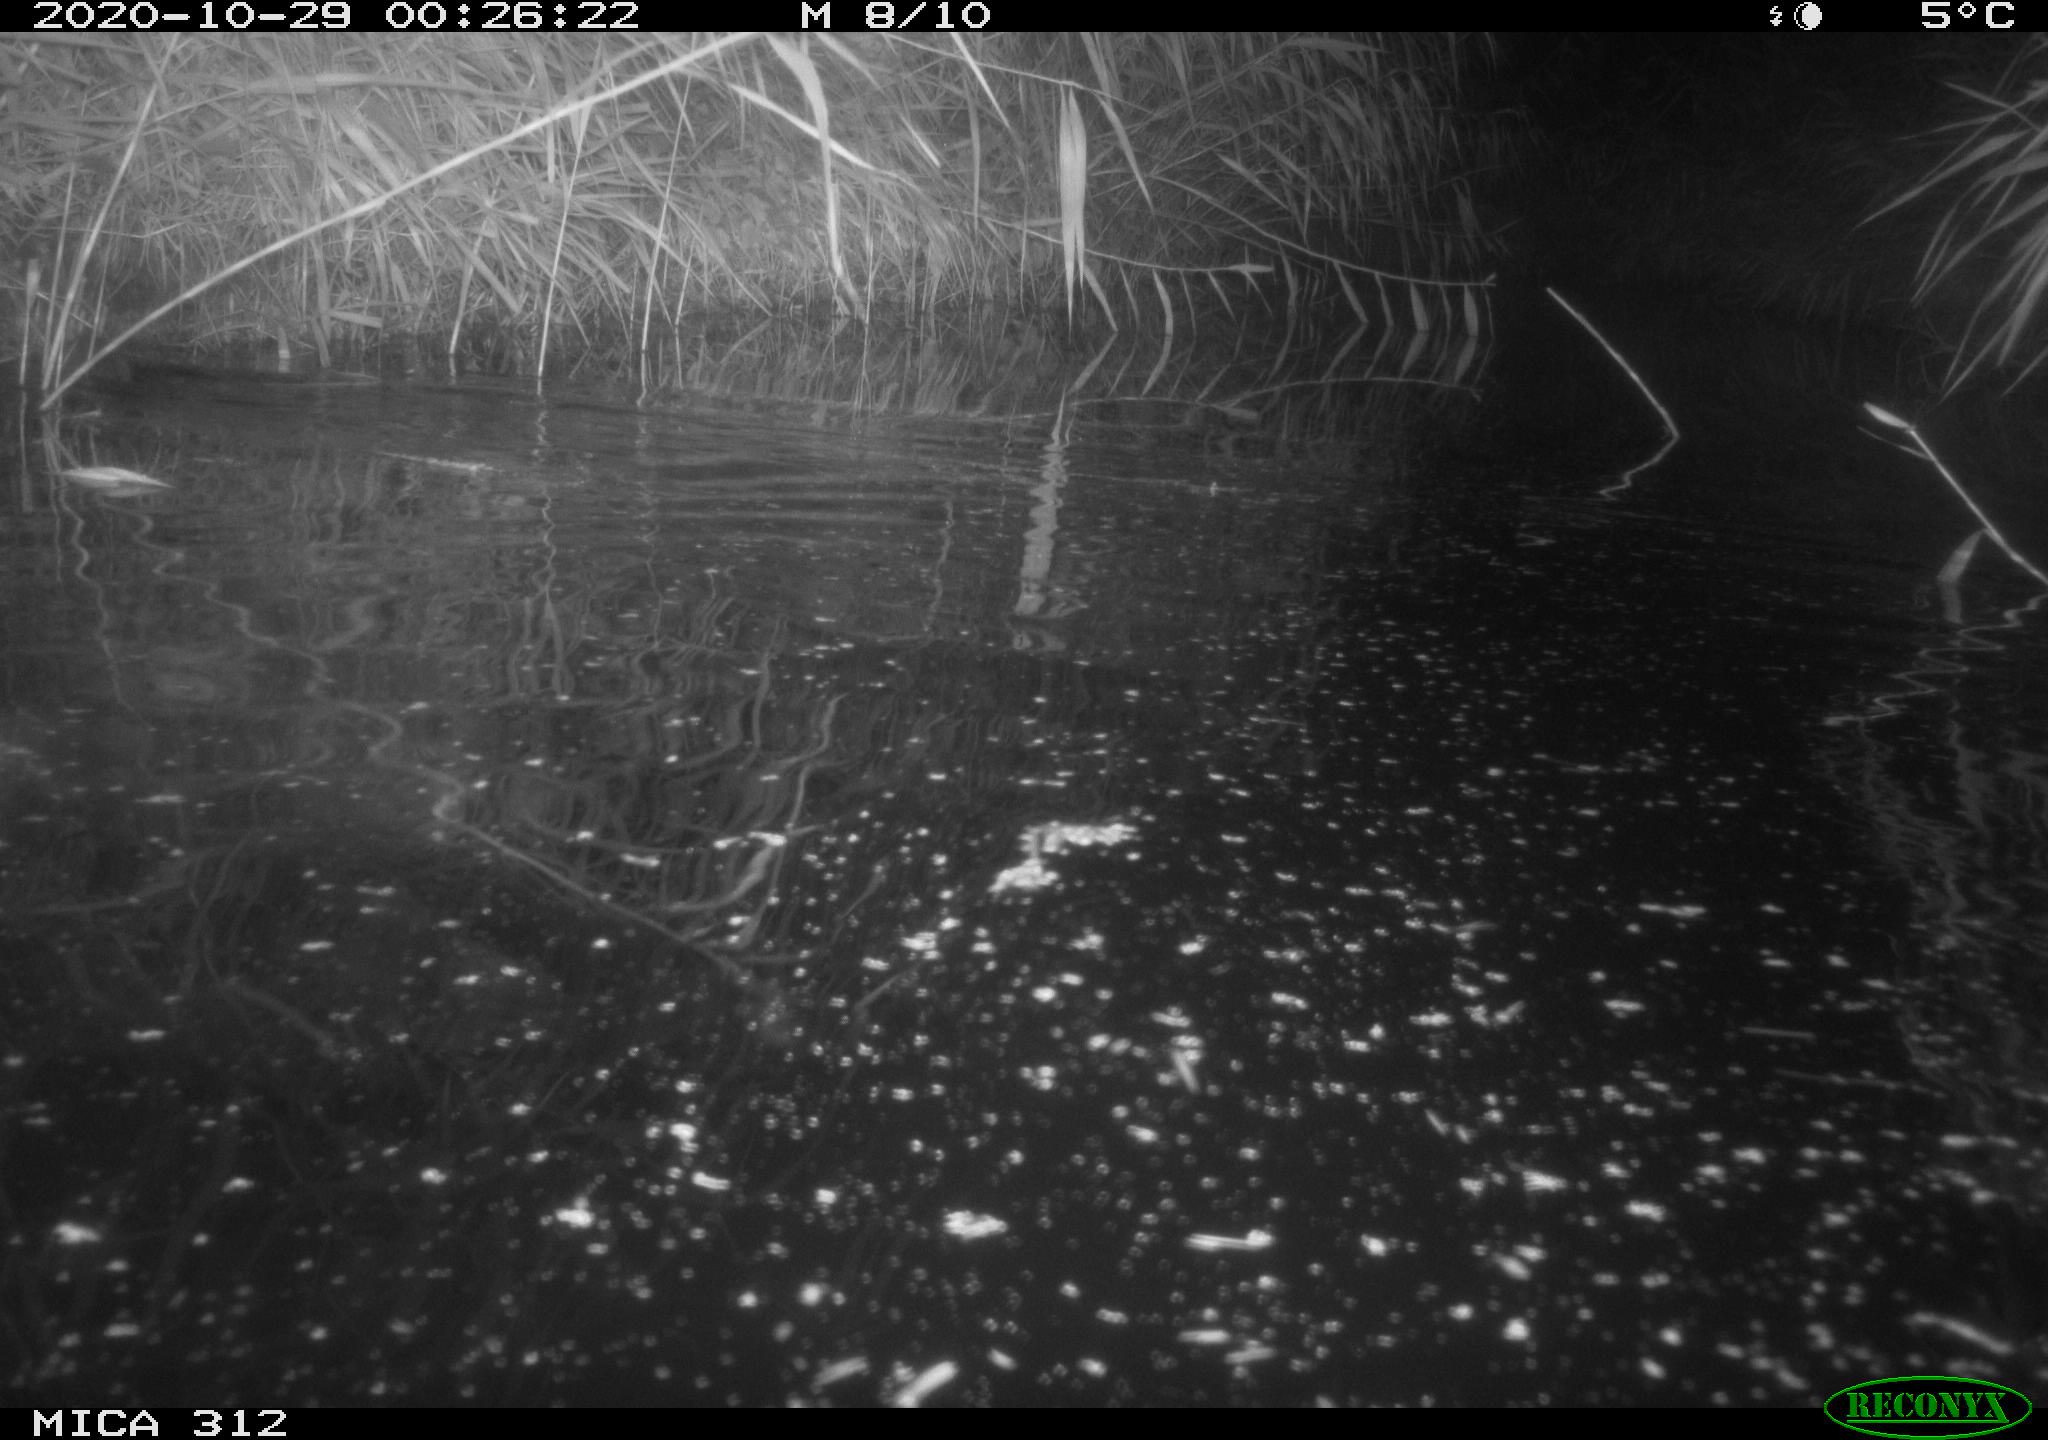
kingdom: Animalia
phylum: Chordata
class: Mammalia
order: Rodentia
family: Muridae
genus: Rattus
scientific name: Rattus norvegicus
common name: Brown rat
